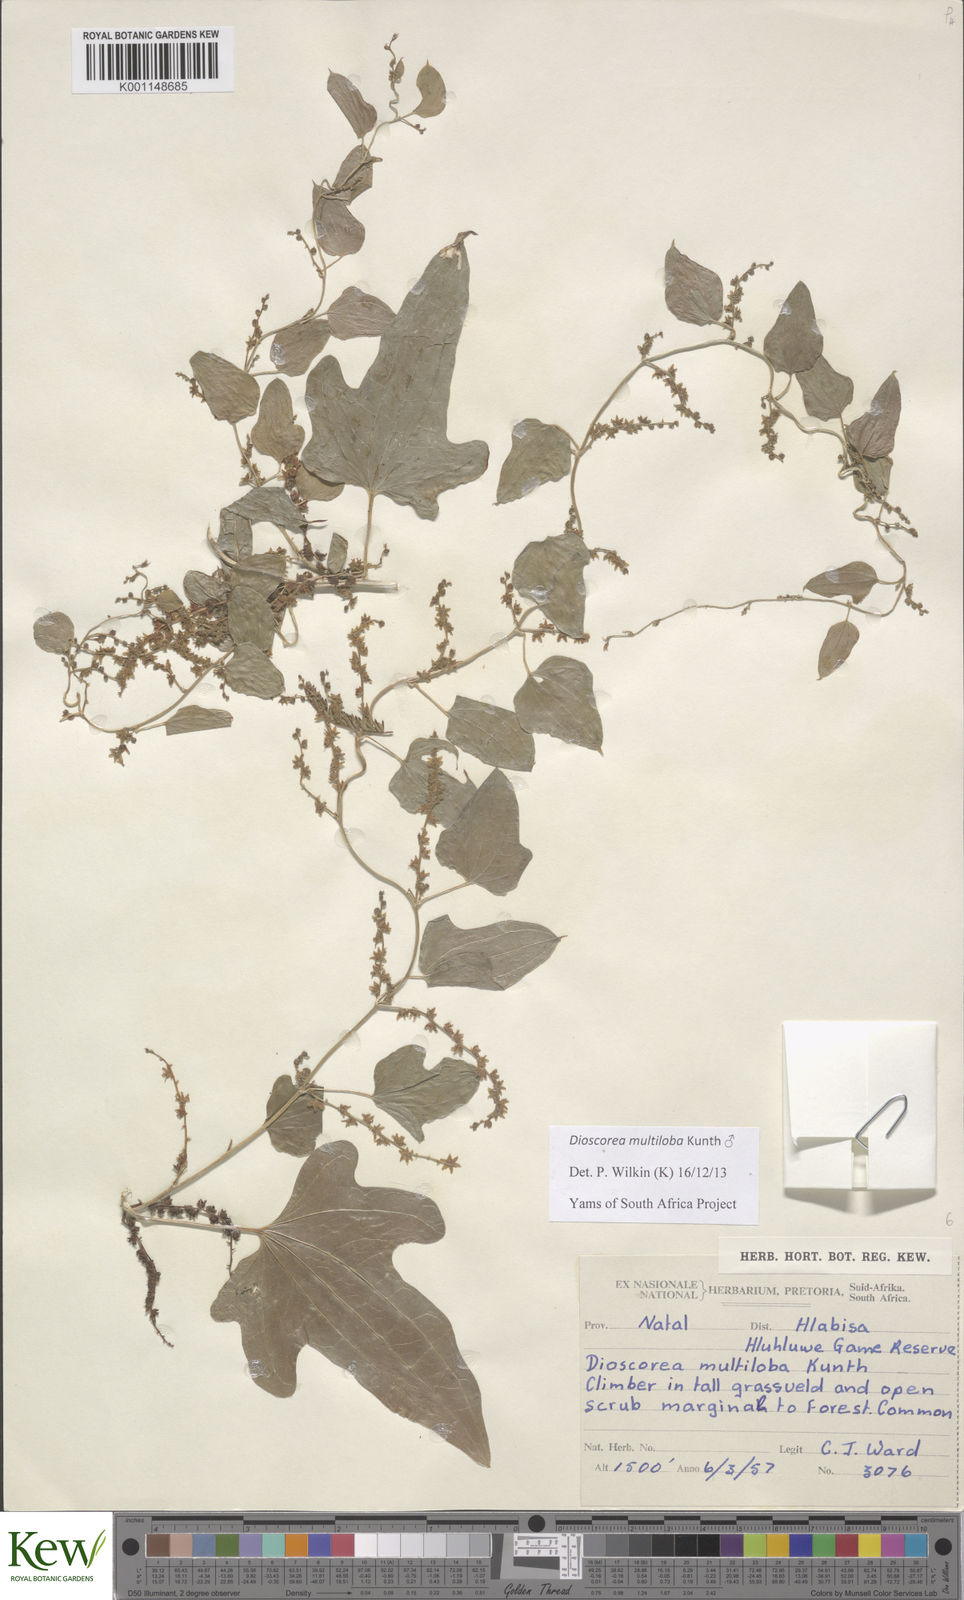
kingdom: Plantae
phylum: Tracheophyta
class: Liliopsida
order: Dioscoreales
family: Dioscoreaceae
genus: Dioscorea
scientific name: Dioscorea multiloba
